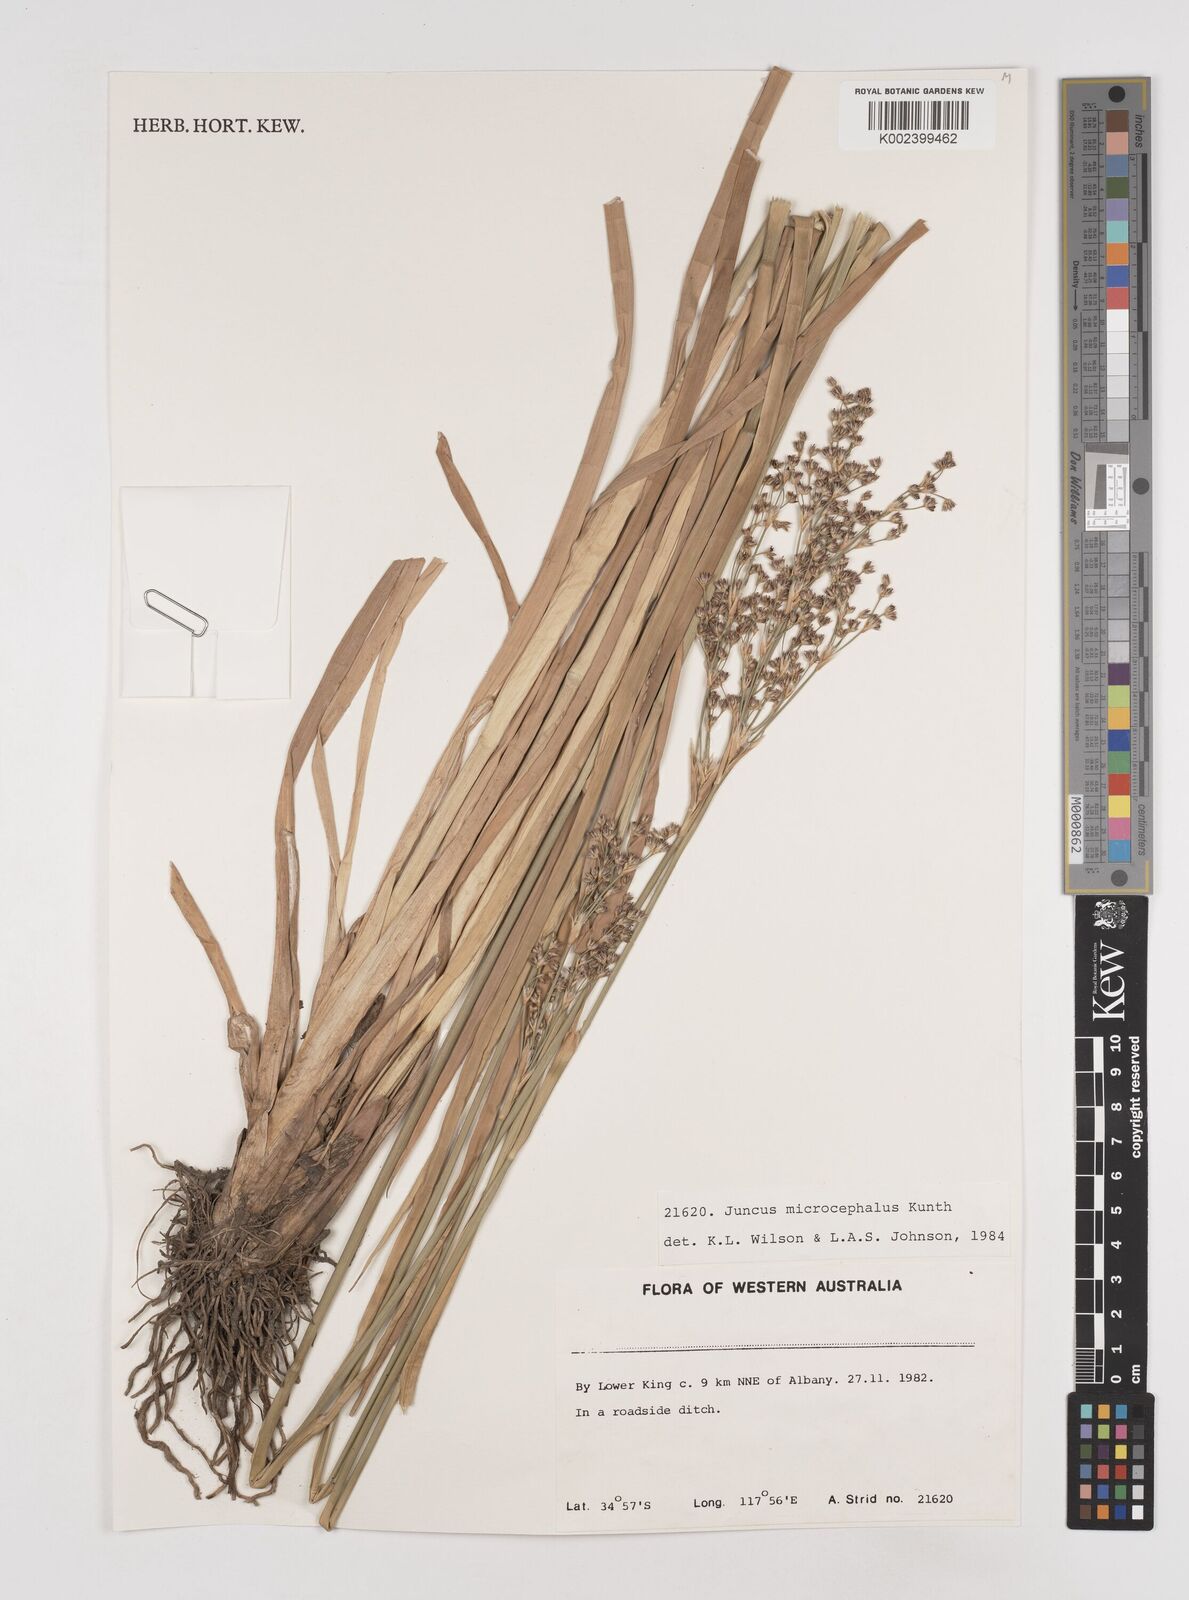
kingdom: Plantae
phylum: Tracheophyta
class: Liliopsida
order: Poales
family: Juncaceae
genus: Juncus
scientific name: Juncus microcephalus
